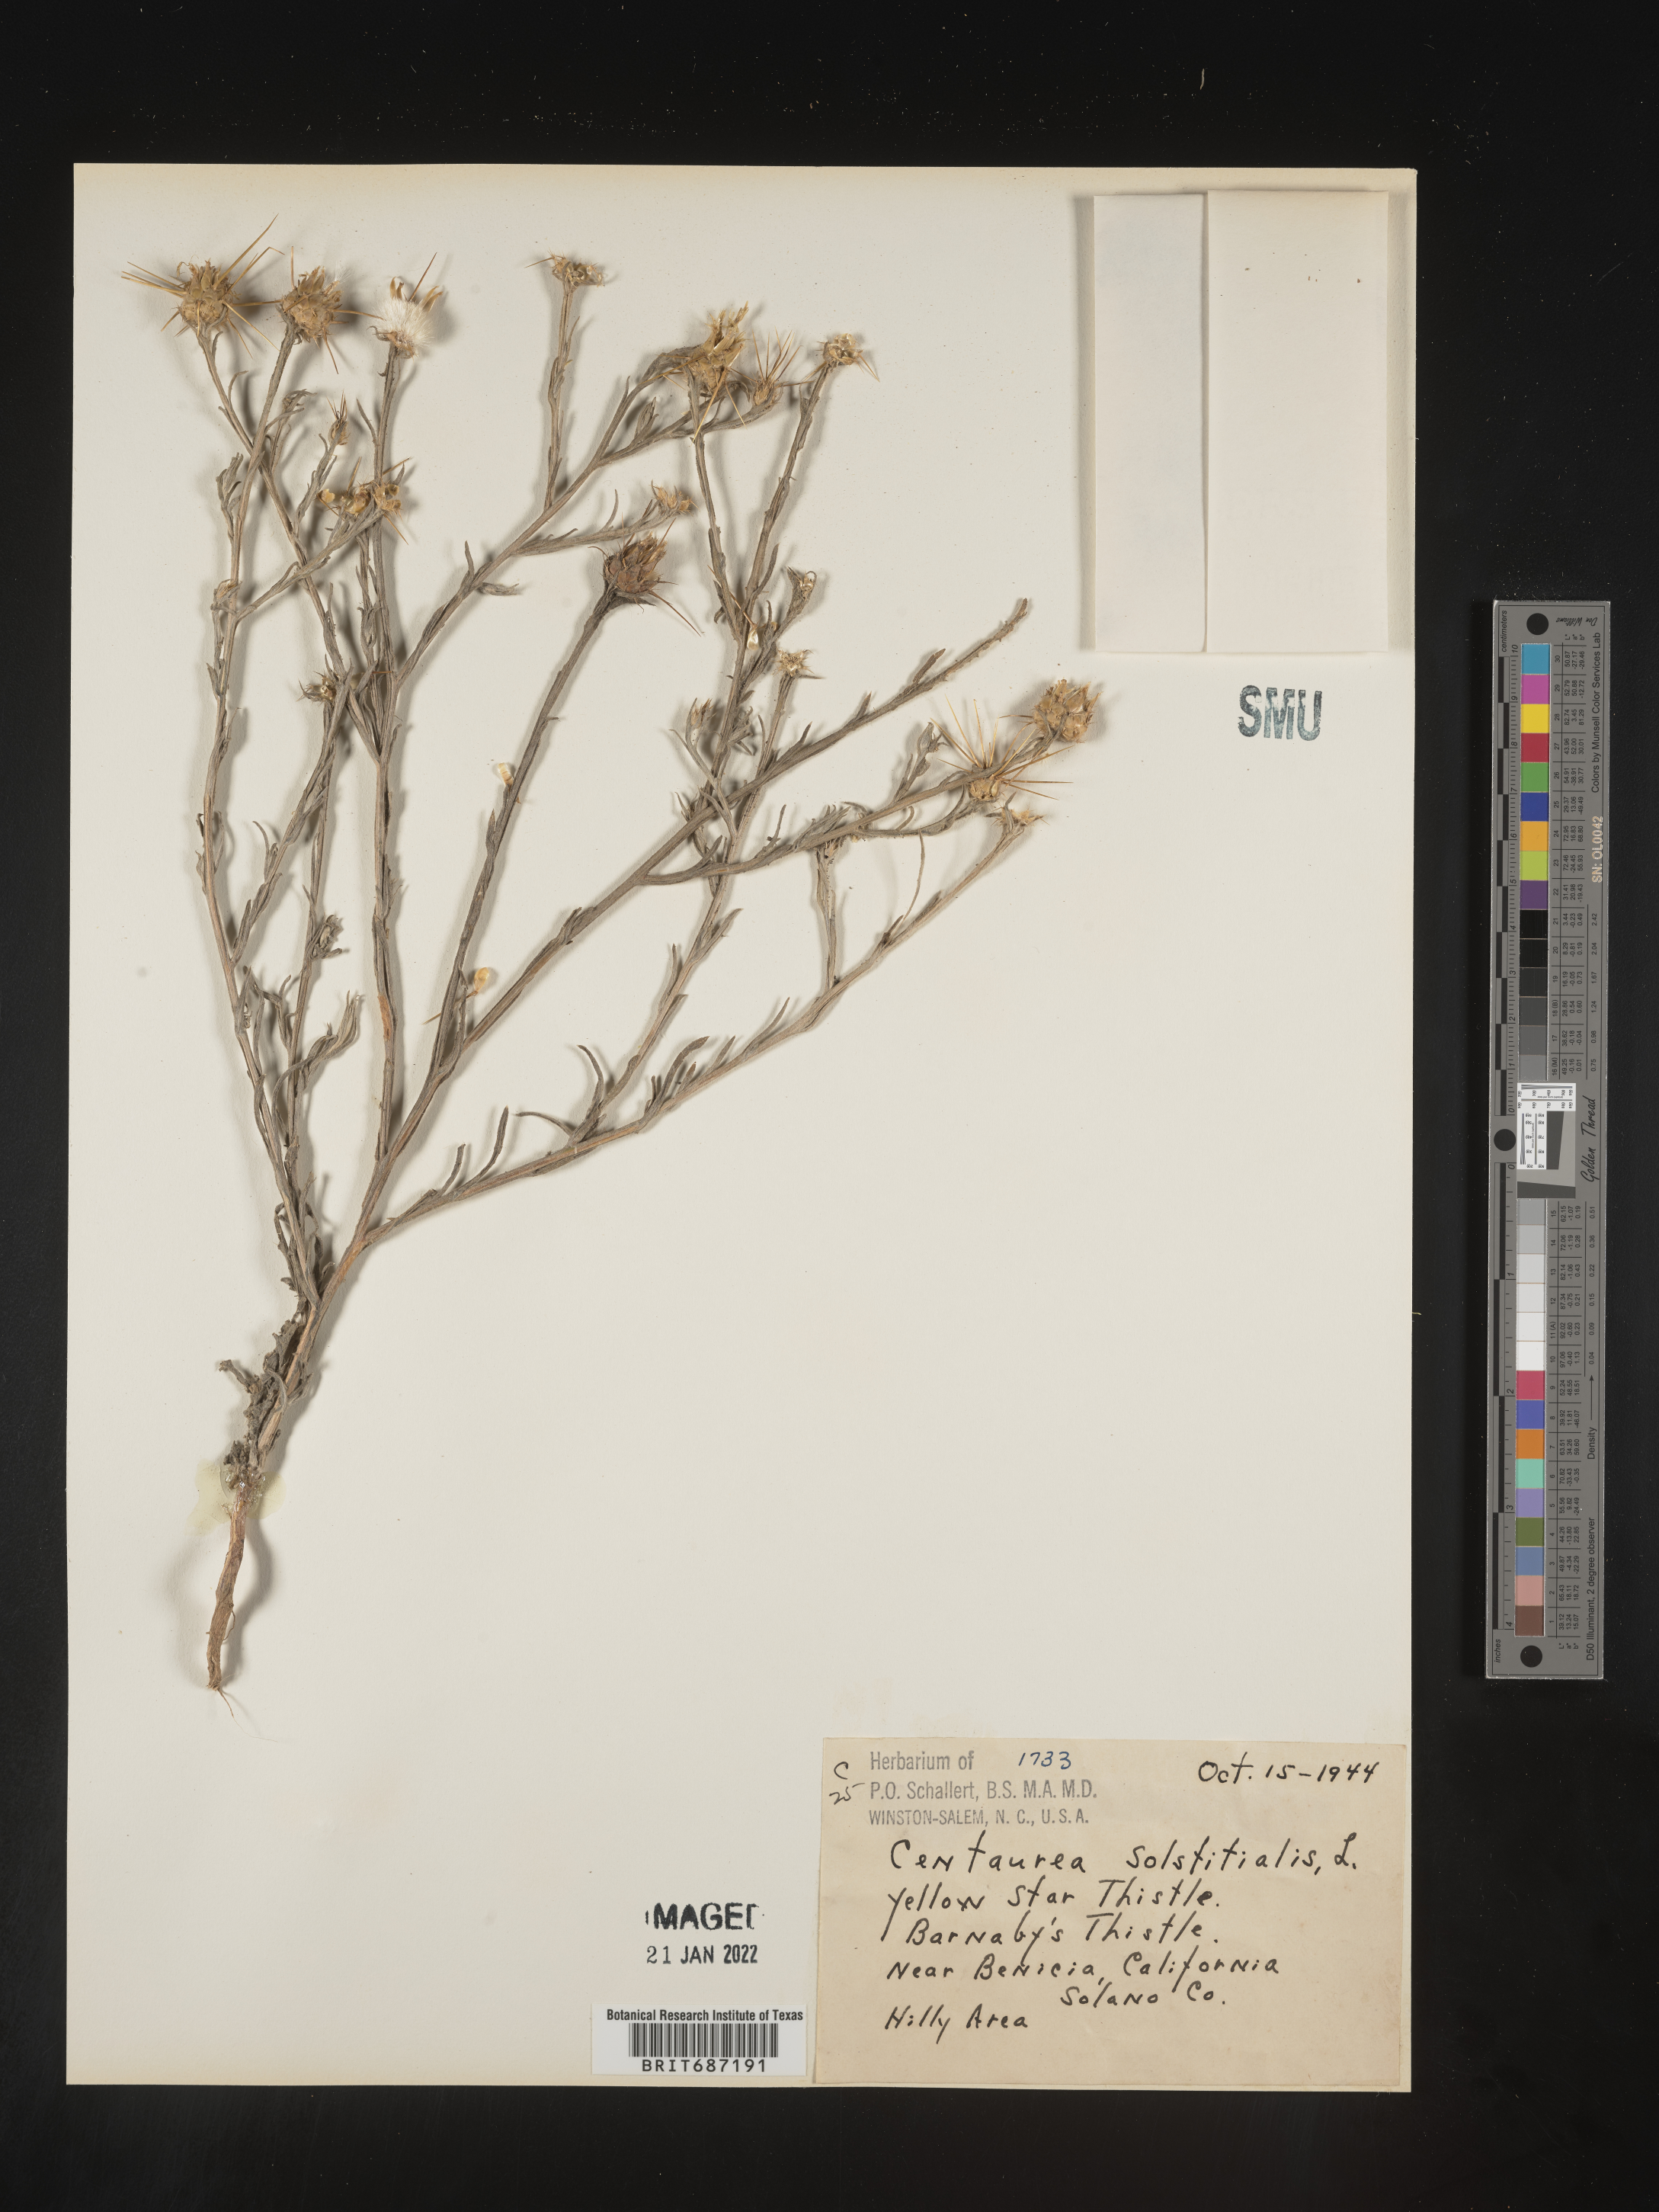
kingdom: Plantae
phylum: Tracheophyta
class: Magnoliopsida
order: Asterales
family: Asteraceae
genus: Centaurea
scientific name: Centaurea solstitialis
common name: Yellow star-thistle
